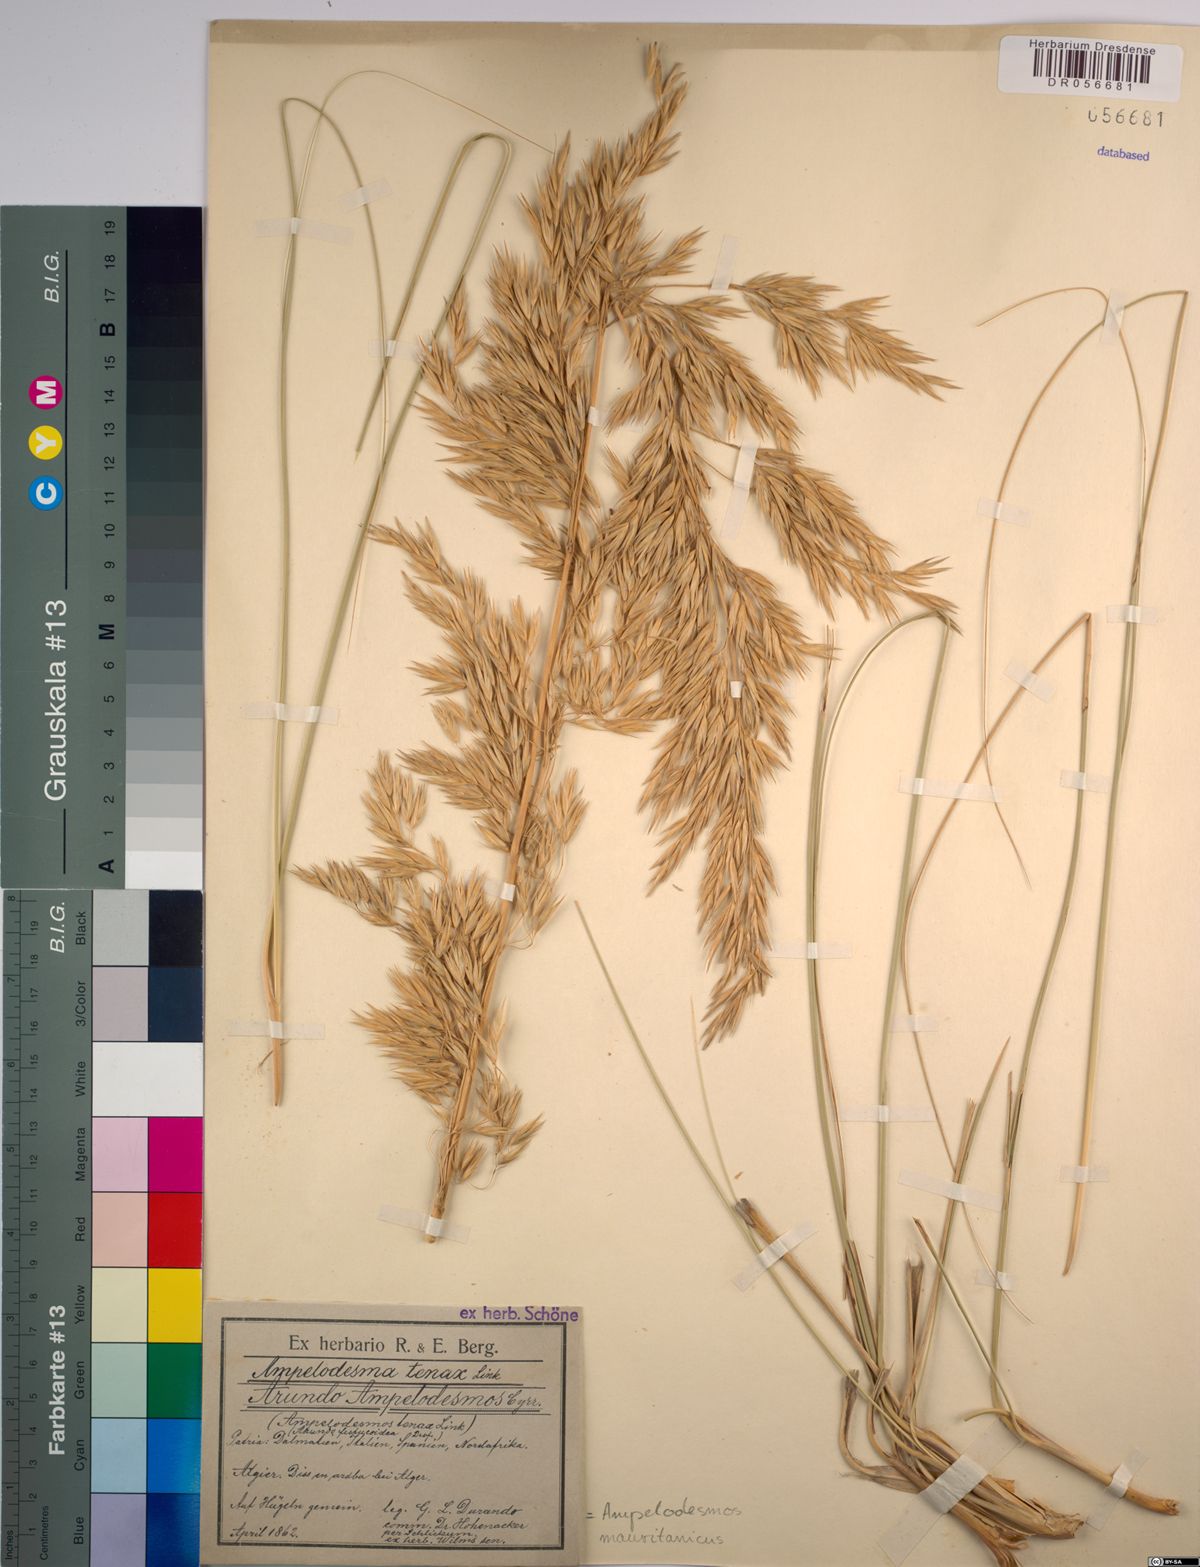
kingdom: Plantae
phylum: Tracheophyta
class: Liliopsida
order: Poales
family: Poaceae
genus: Ampelodesmos
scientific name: Ampelodesmos mauritanicus
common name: Mauritanian grass
